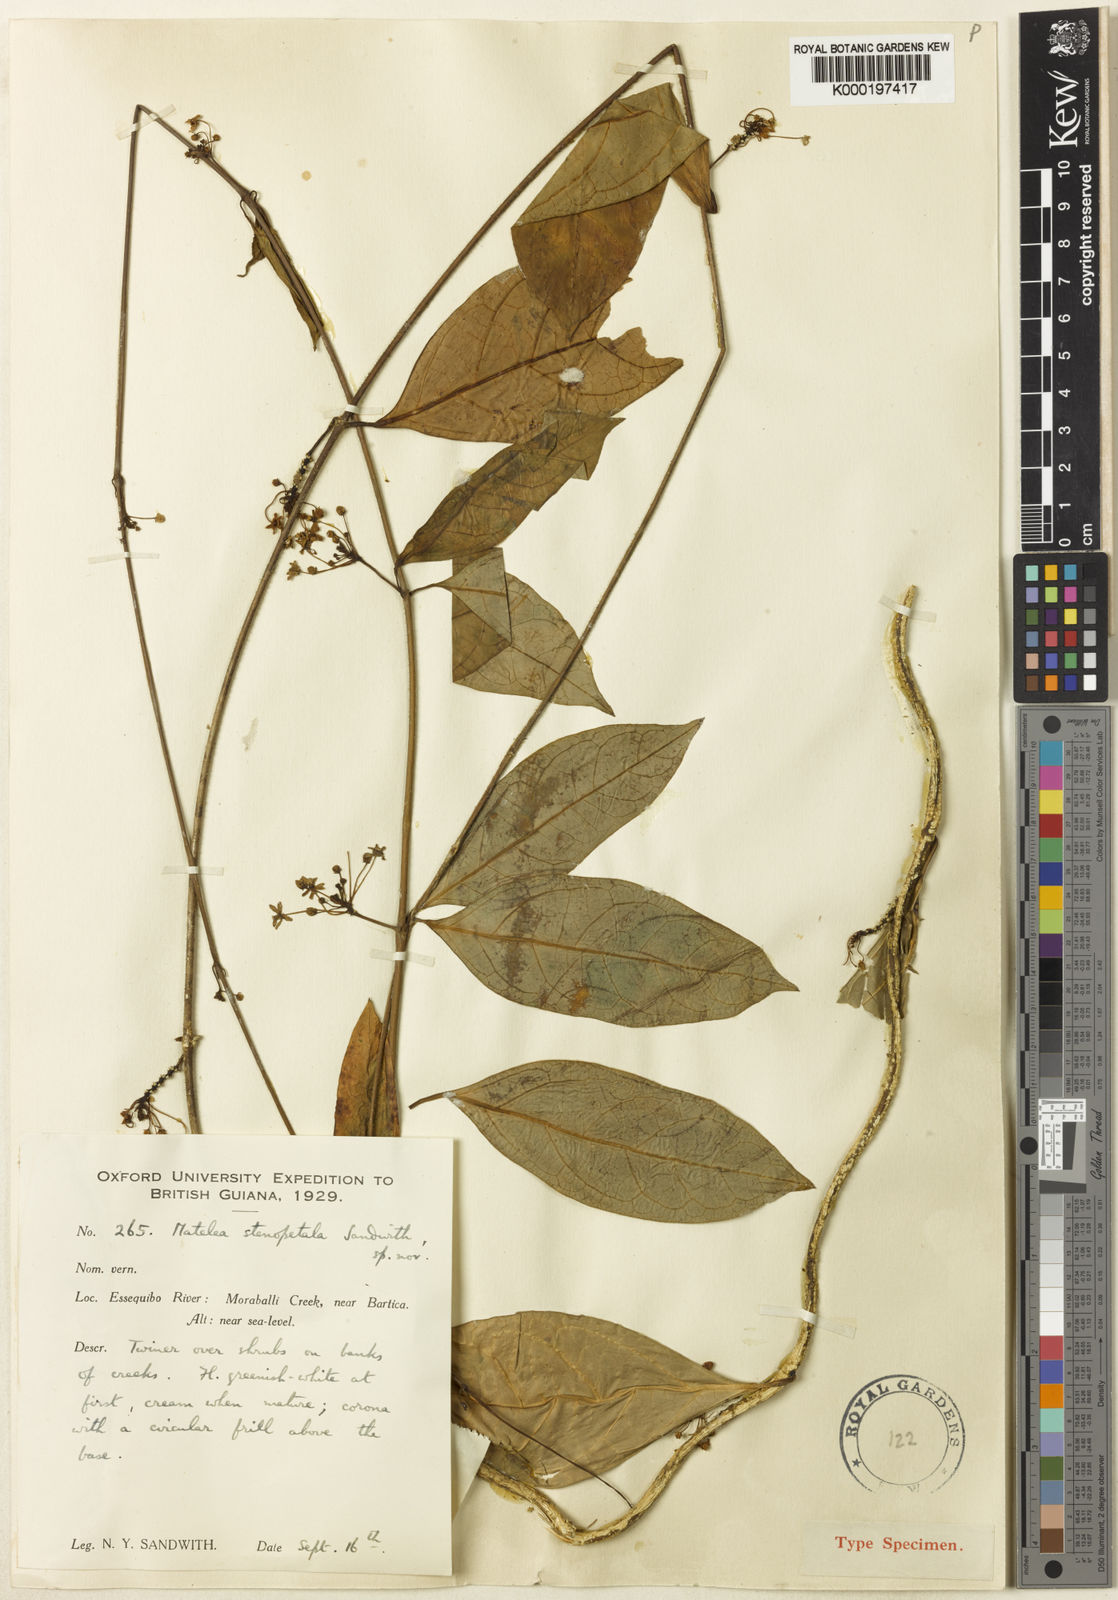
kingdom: Plantae
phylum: Tracheophyta
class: Magnoliopsida
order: Gentianales
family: Apocynaceae
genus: Matelea
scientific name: Matelea stenopetala
